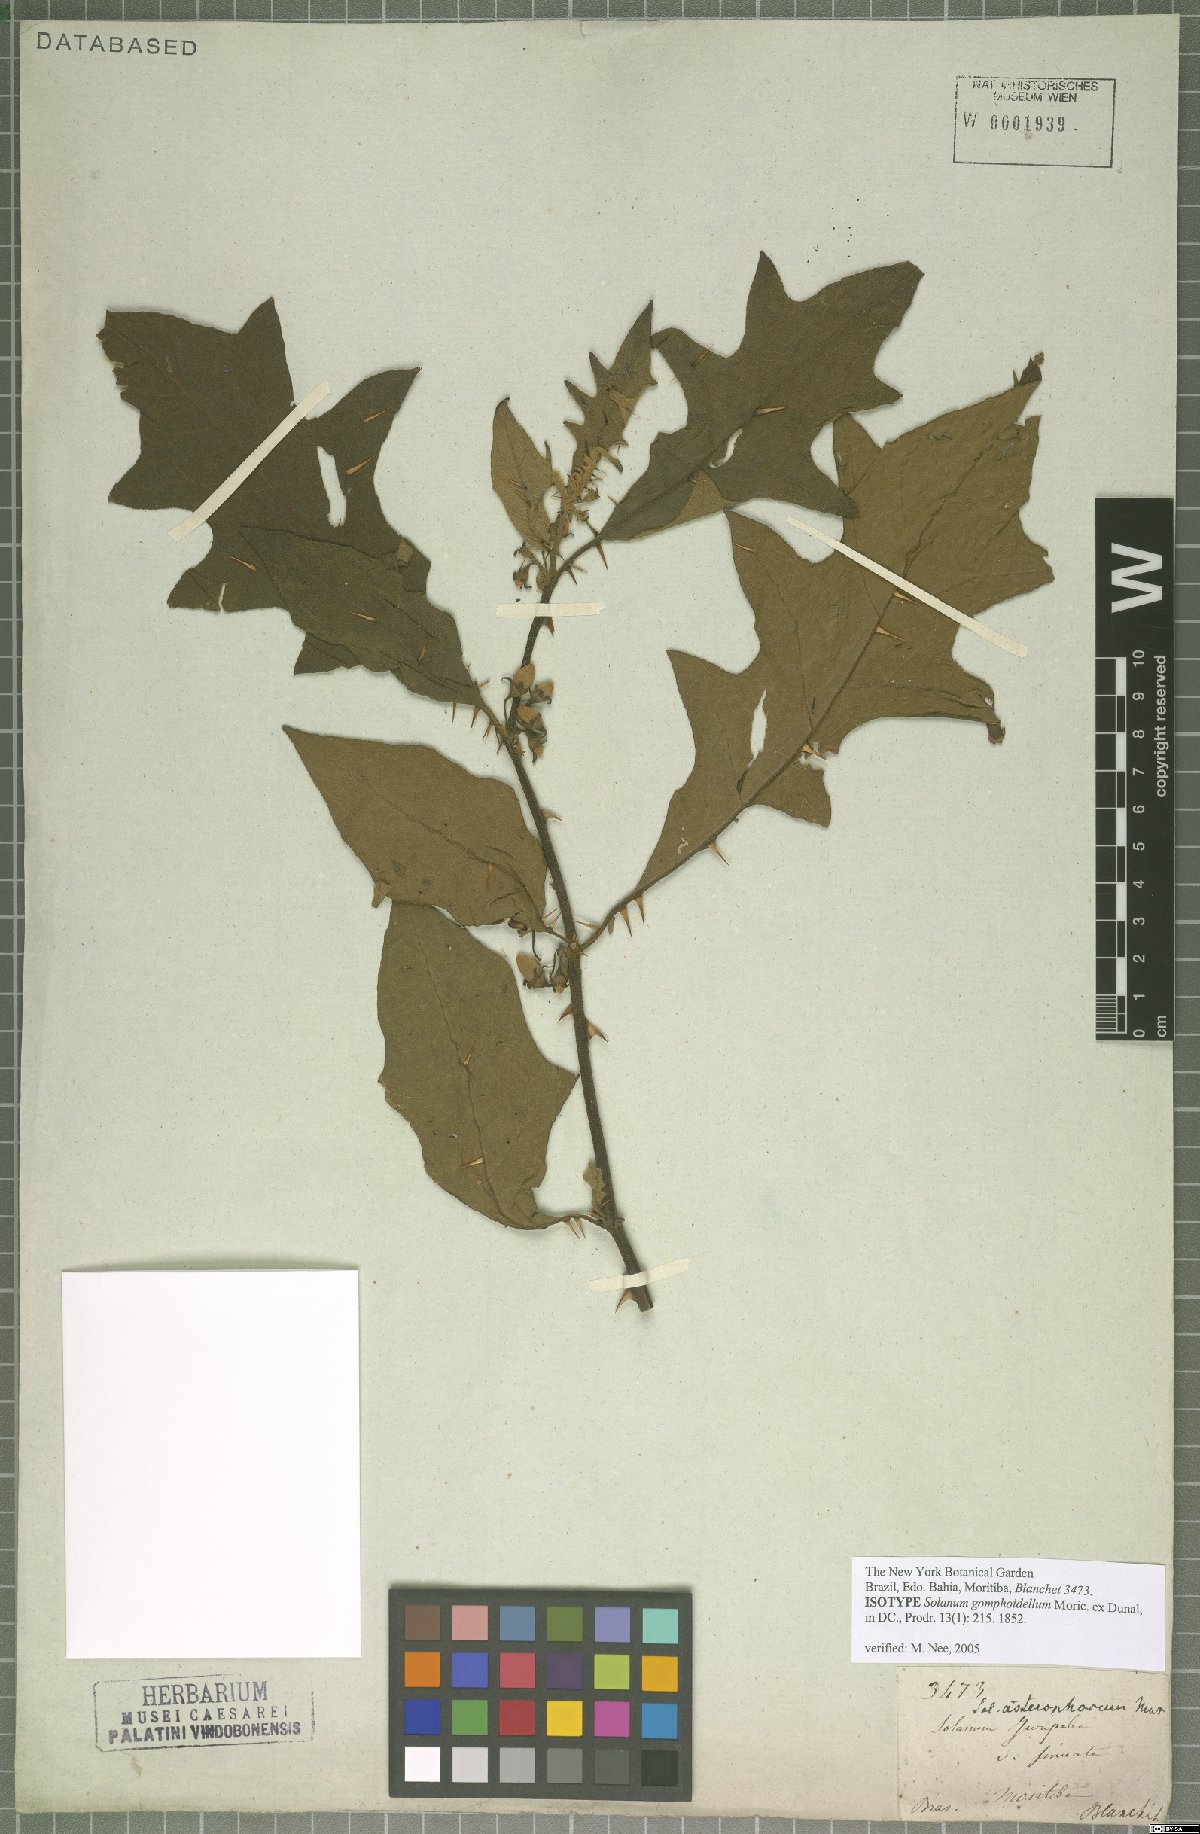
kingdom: Plantae
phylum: Tracheophyta
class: Magnoliopsida
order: Solanales
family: Solanaceae
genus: Solanum
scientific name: Solanum asterophorum
